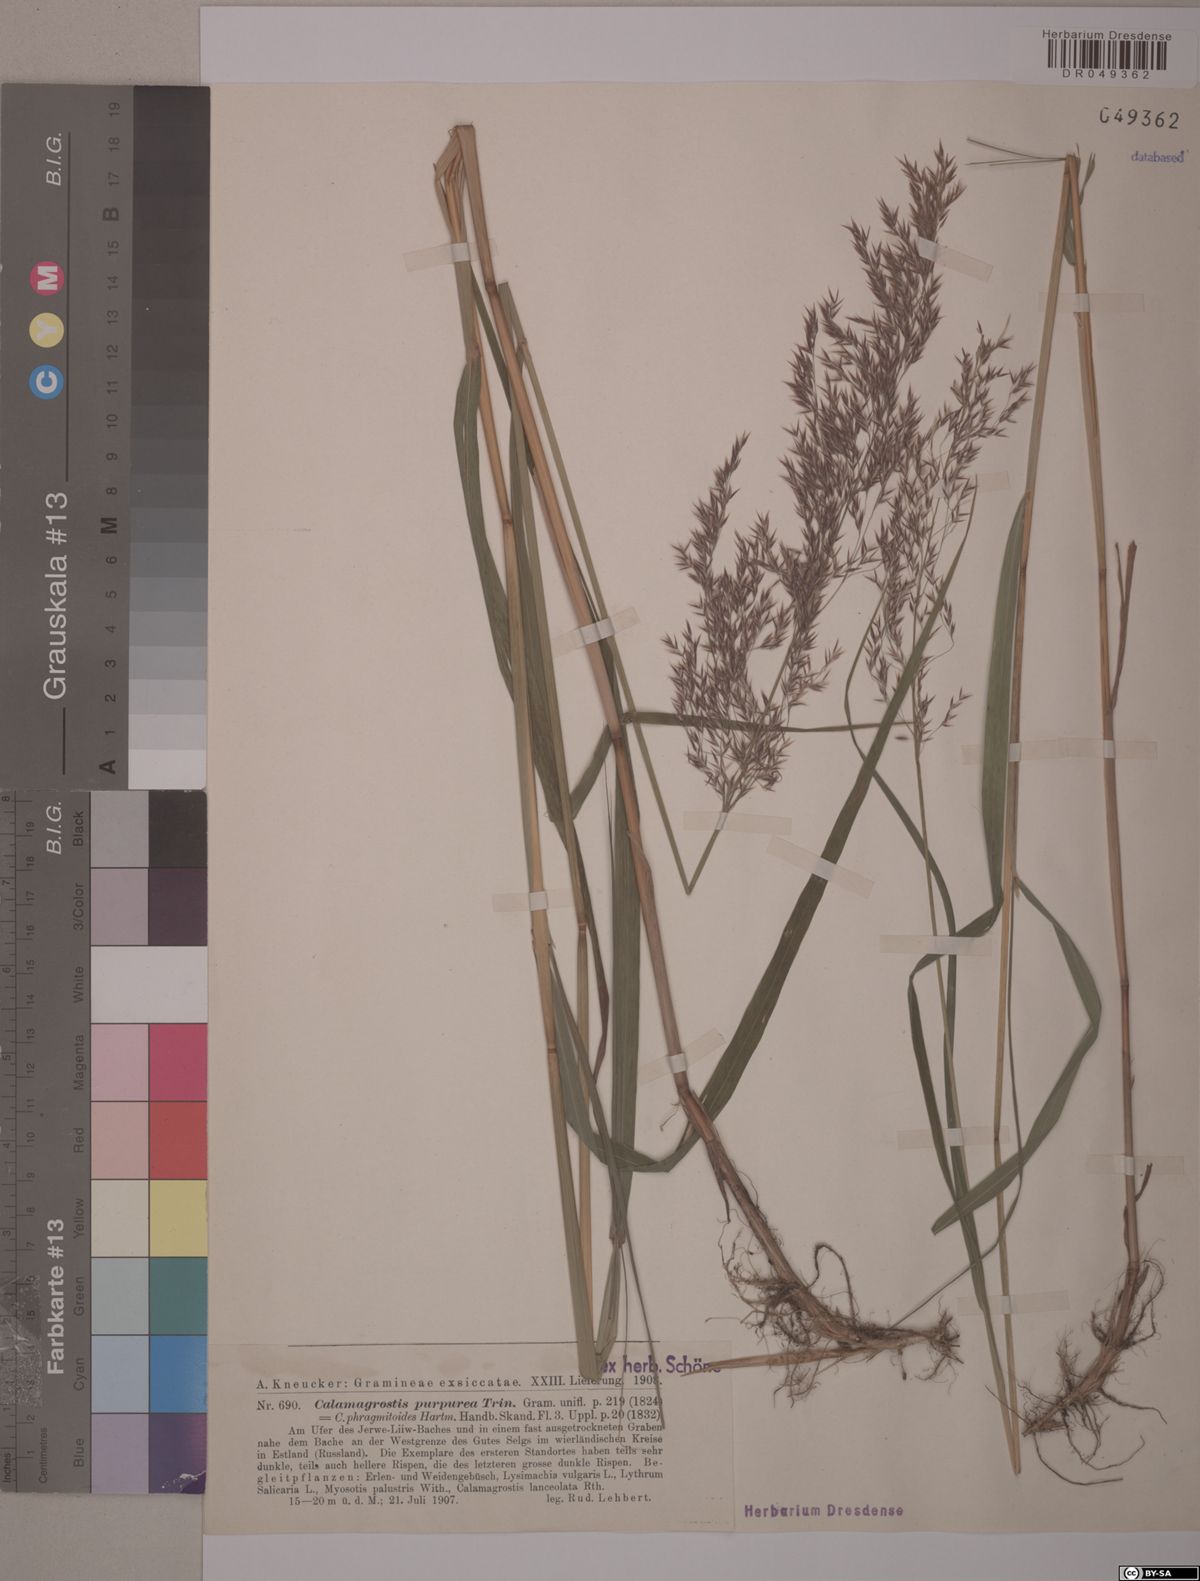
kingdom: Plantae
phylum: Tracheophyta
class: Liliopsida
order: Poales
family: Poaceae
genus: Calamagrostis
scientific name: Calamagrostis purpurea
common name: Scandinavian small-reed
